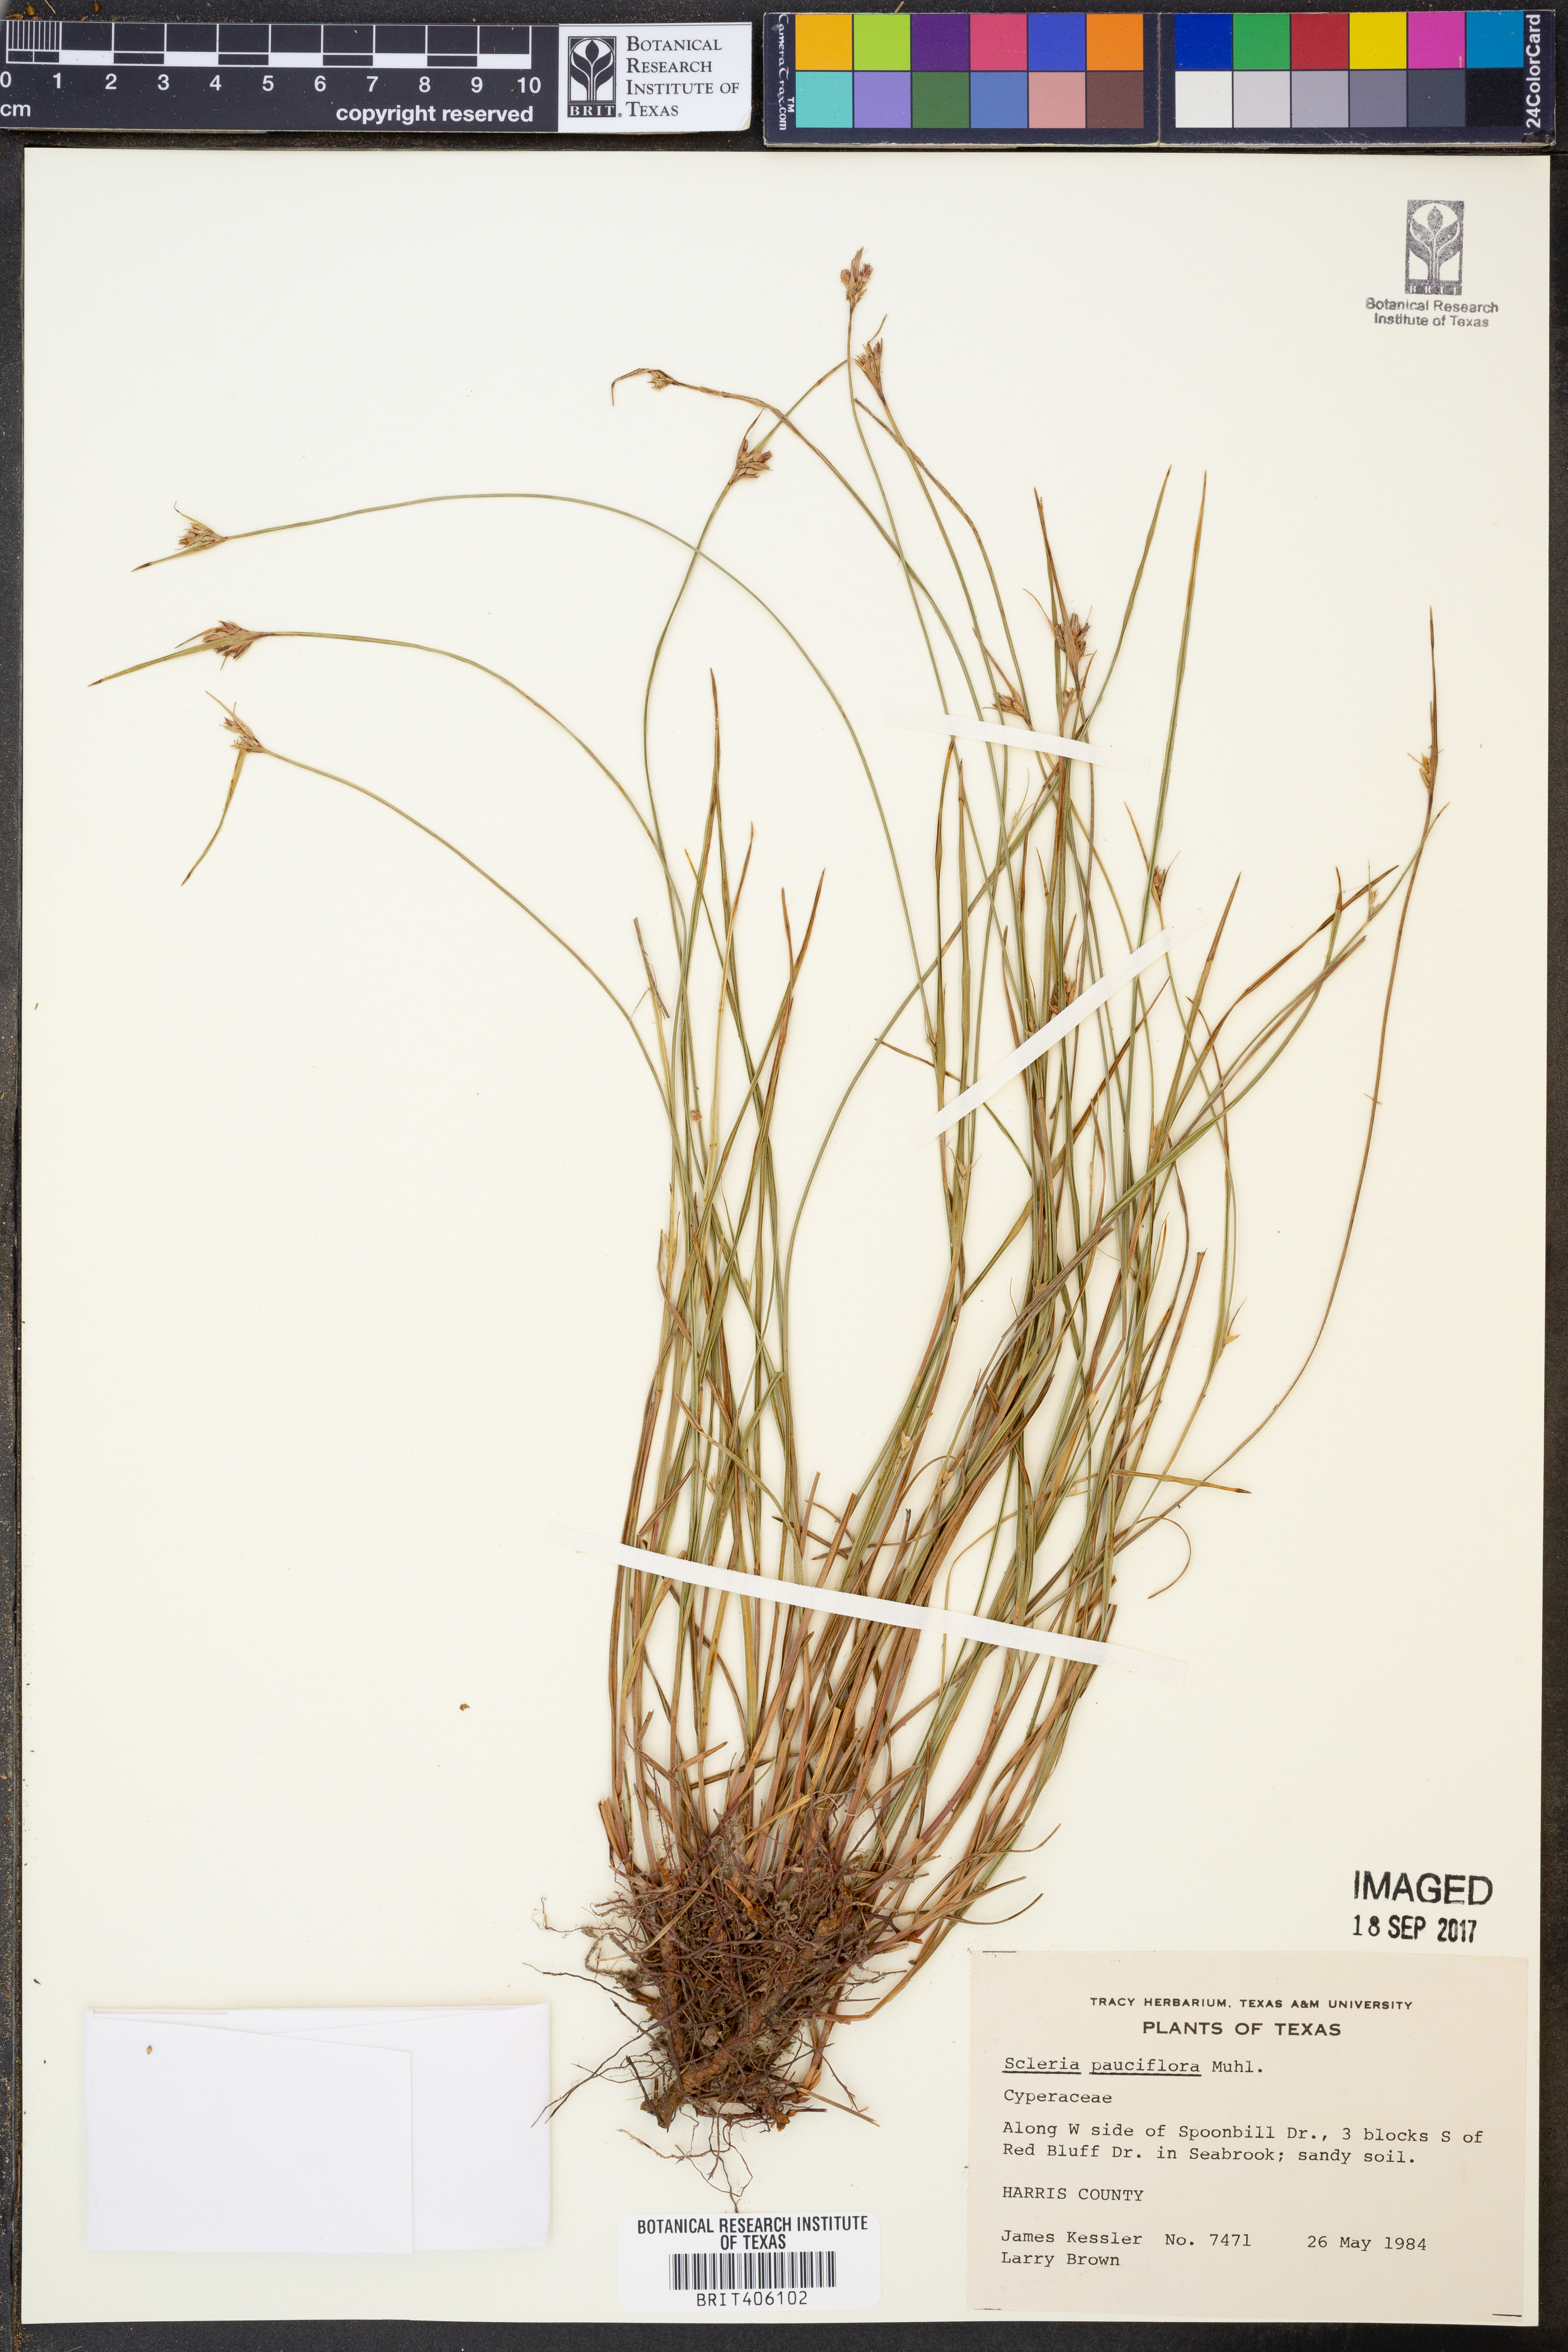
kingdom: Plantae
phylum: Tracheophyta
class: Liliopsida
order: Poales
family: Cyperaceae
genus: Scleria
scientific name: Scleria pauciflora
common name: Few-flowered nutrush
